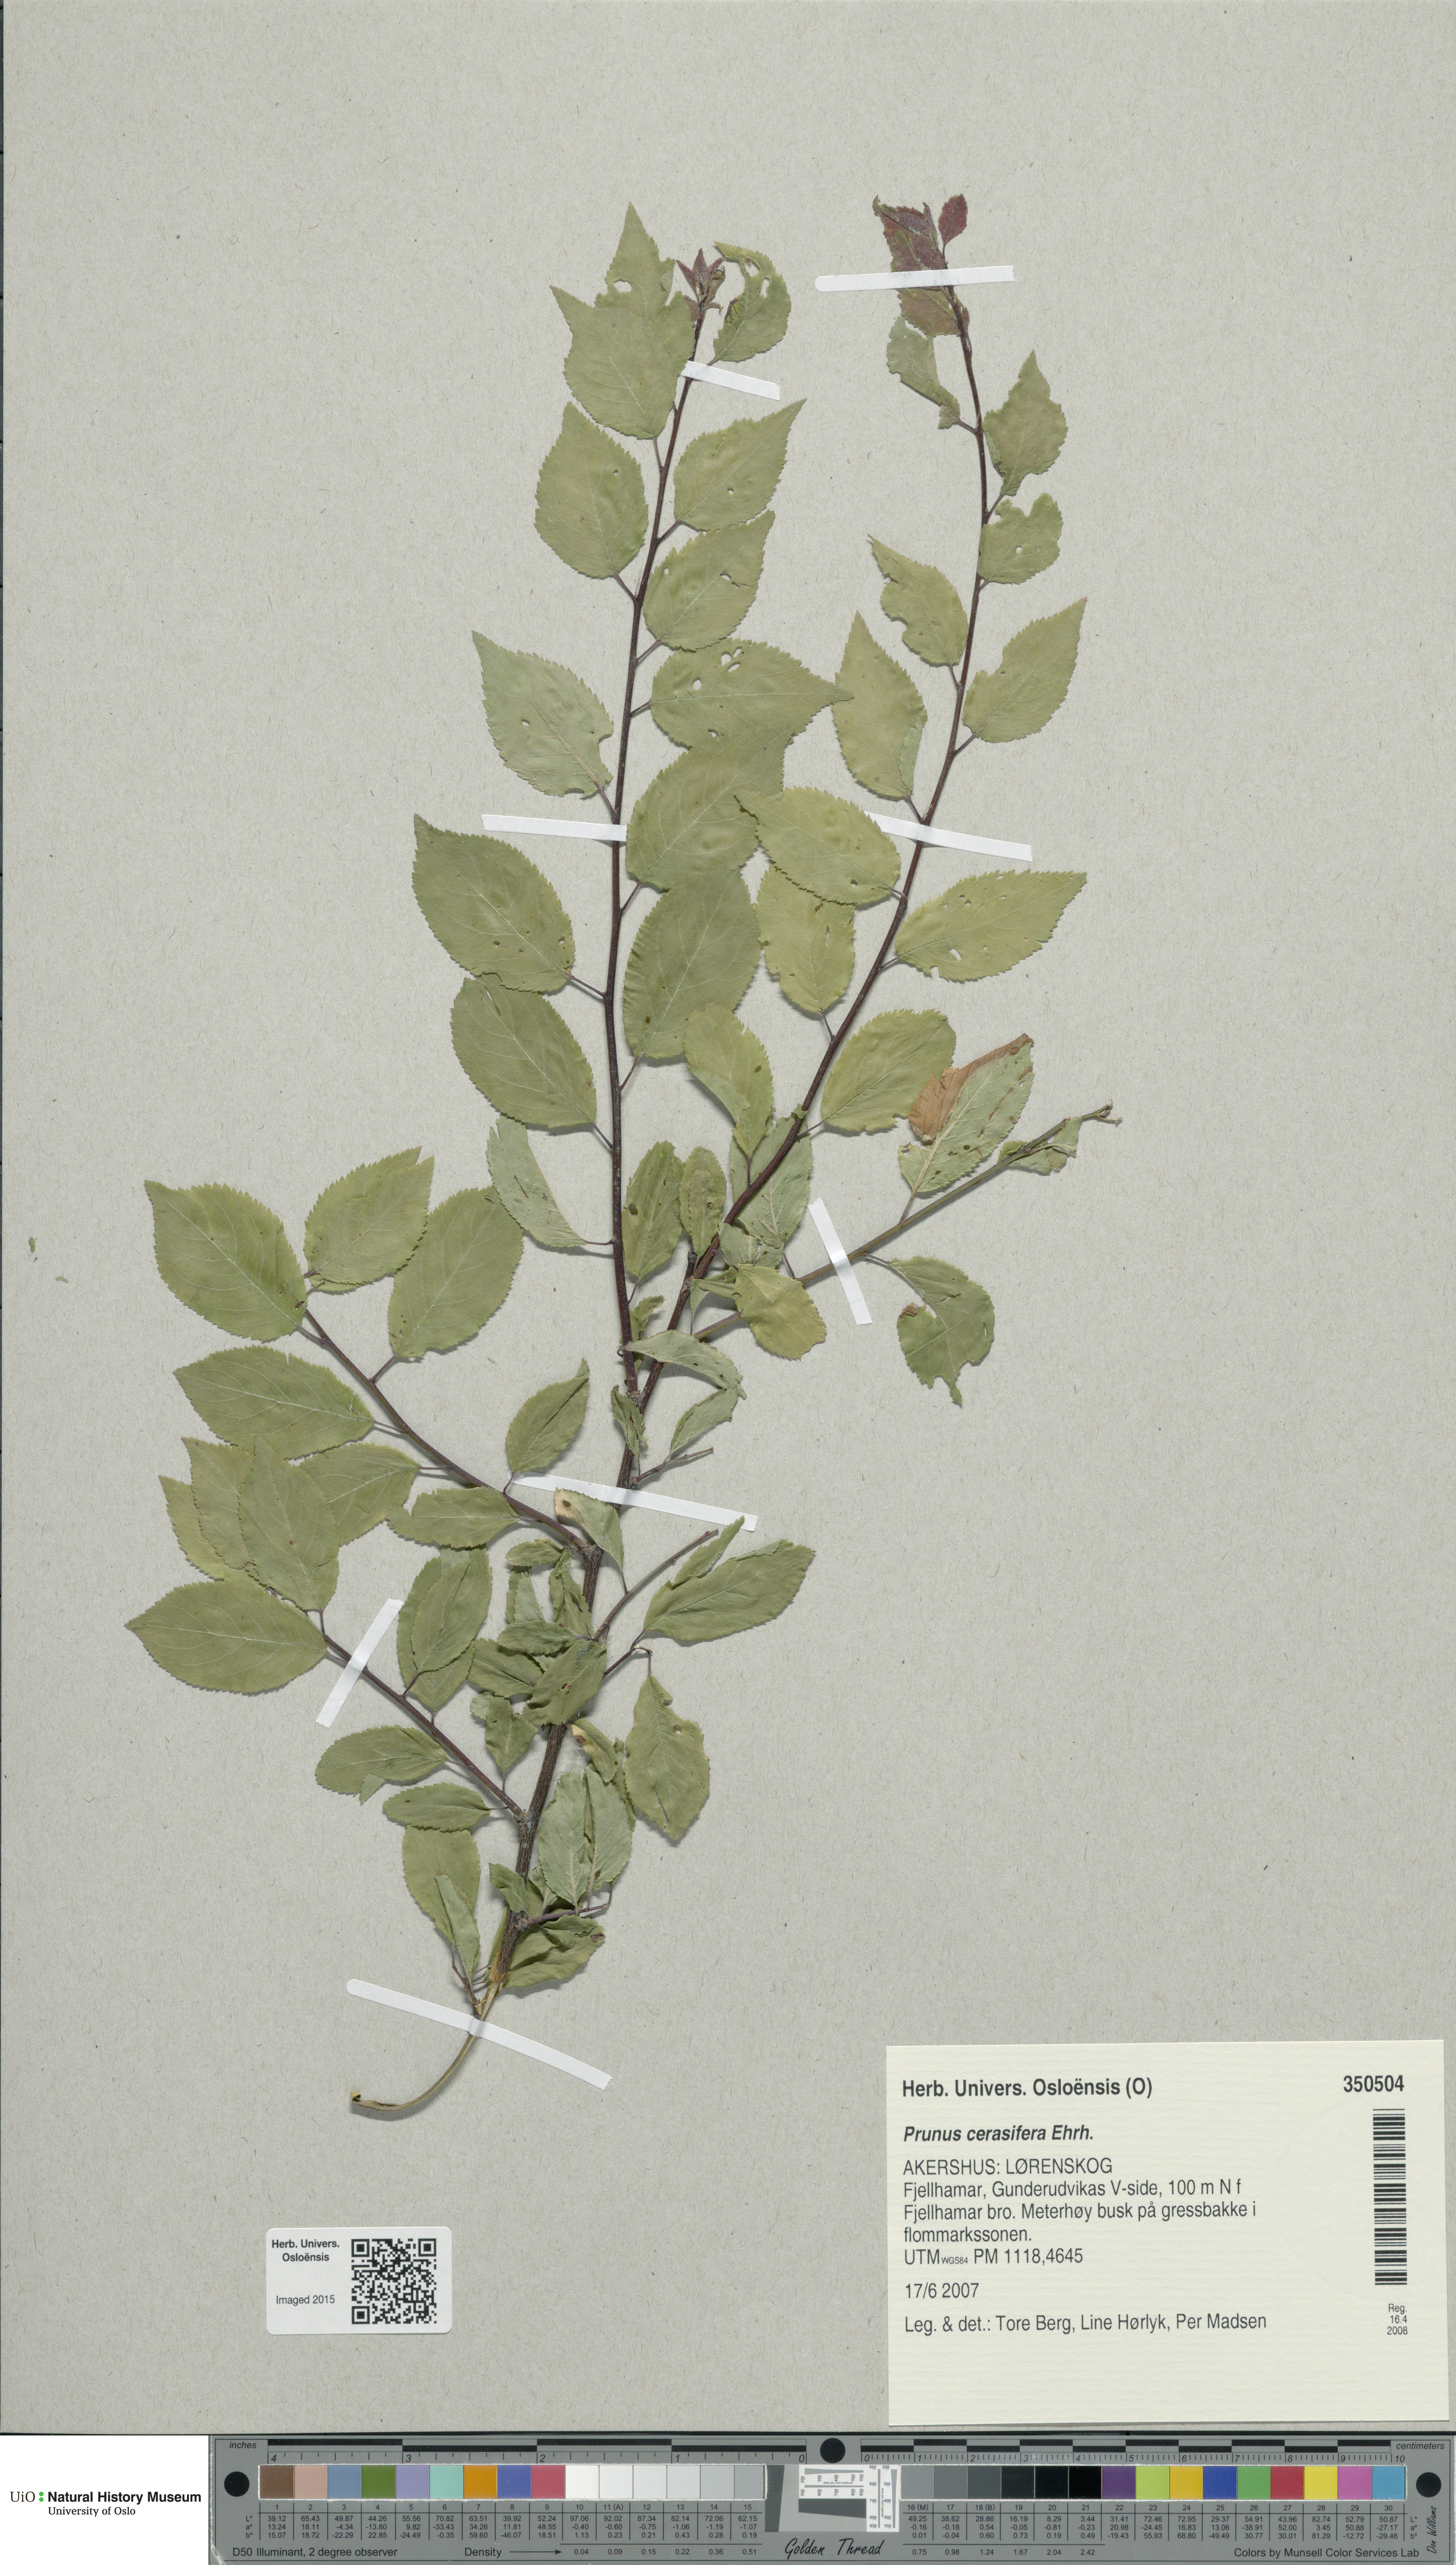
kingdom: Plantae
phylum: Tracheophyta
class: Magnoliopsida
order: Rosales
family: Rosaceae
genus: Prunus
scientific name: Prunus cerasifera
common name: Cherry plum
